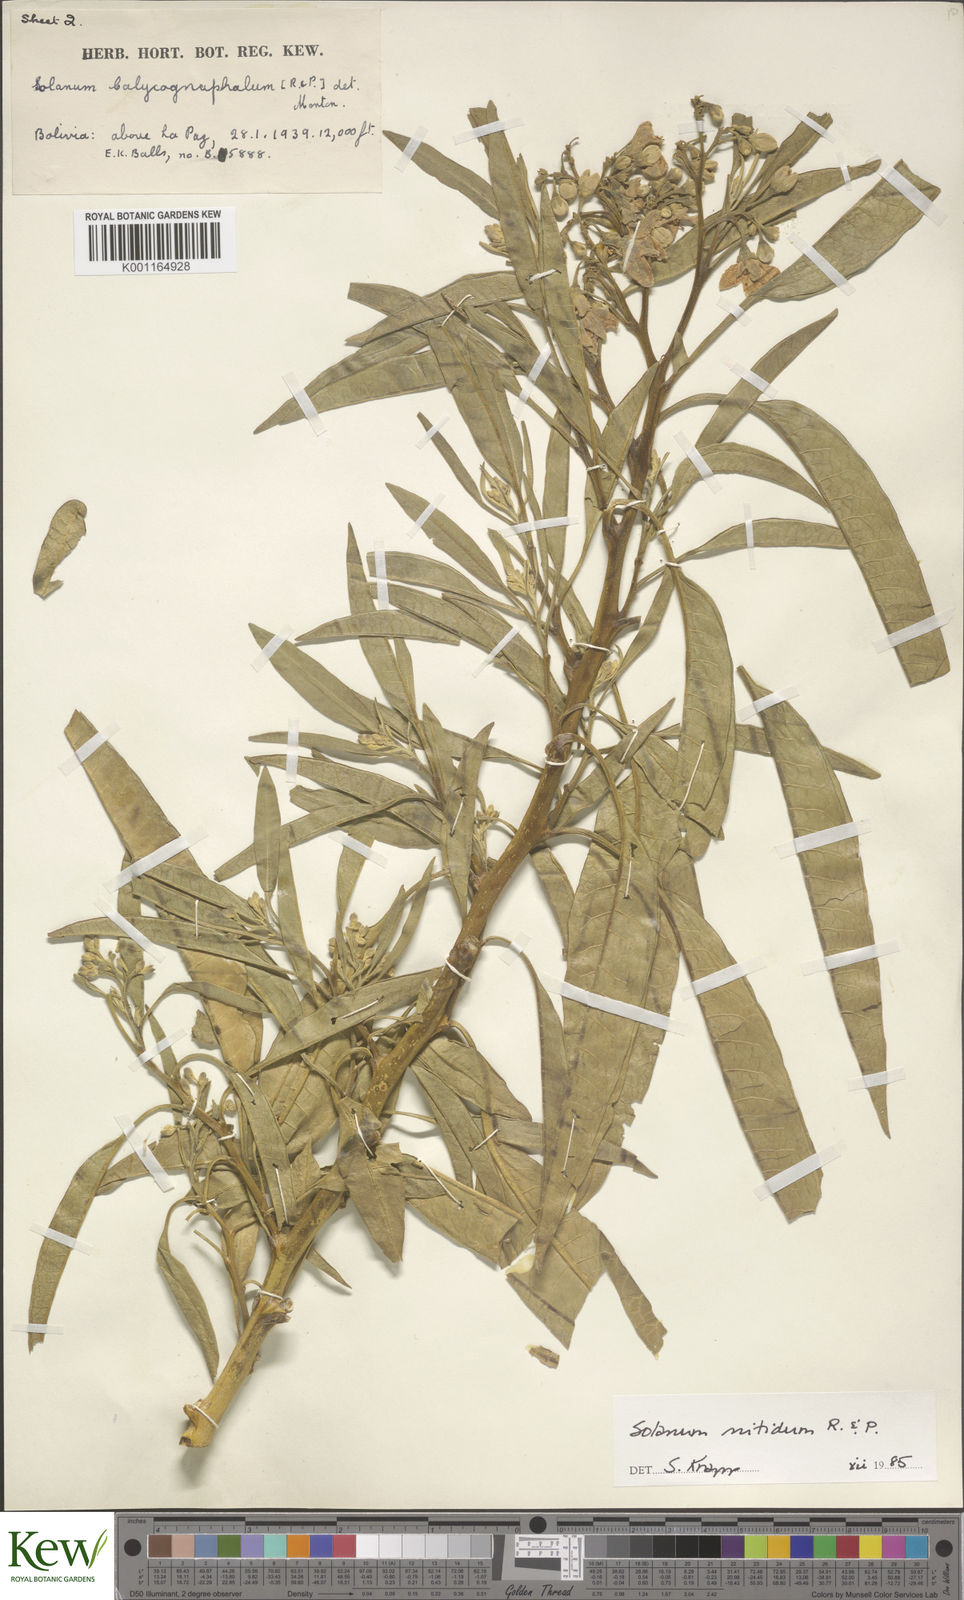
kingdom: Plantae
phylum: Tracheophyta
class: Magnoliopsida
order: Solanales
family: Solanaceae
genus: Solanum
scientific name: Solanum nitidum
